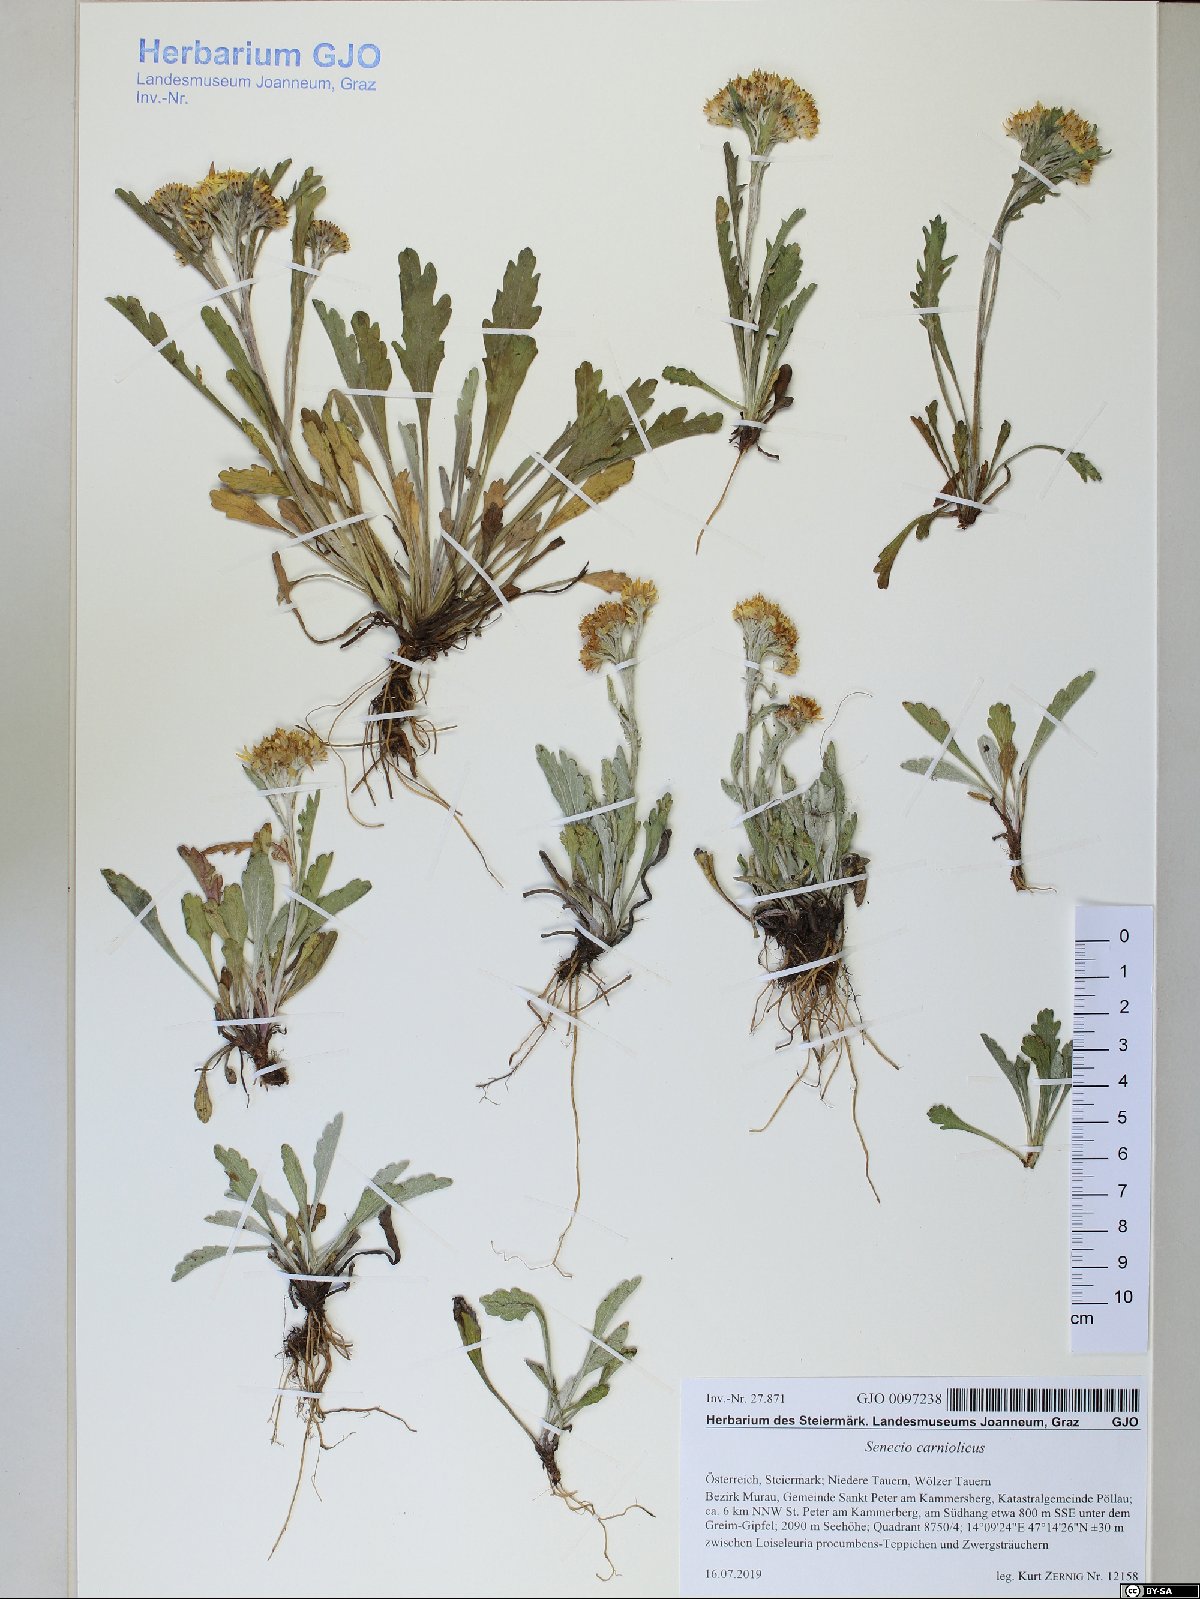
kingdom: Plantae
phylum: Tracheophyta
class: Magnoliopsida
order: Asterales
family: Asteraceae
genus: Jacobaea
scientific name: Jacobaea carniolica
